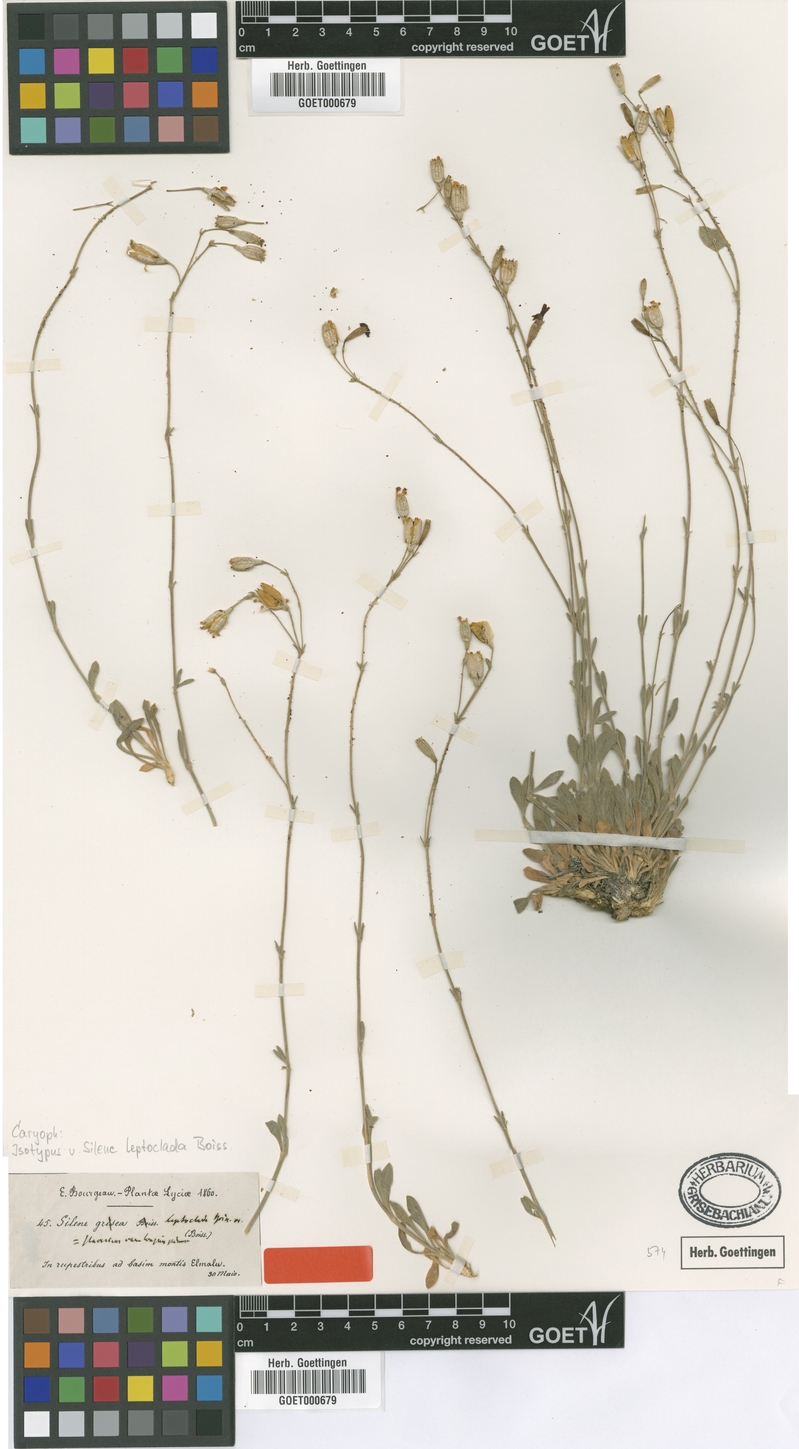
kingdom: Plantae
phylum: Tracheophyta
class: Magnoliopsida
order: Caryophyllales
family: Caryophyllaceae
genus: Silene
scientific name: Silene leptoclada
